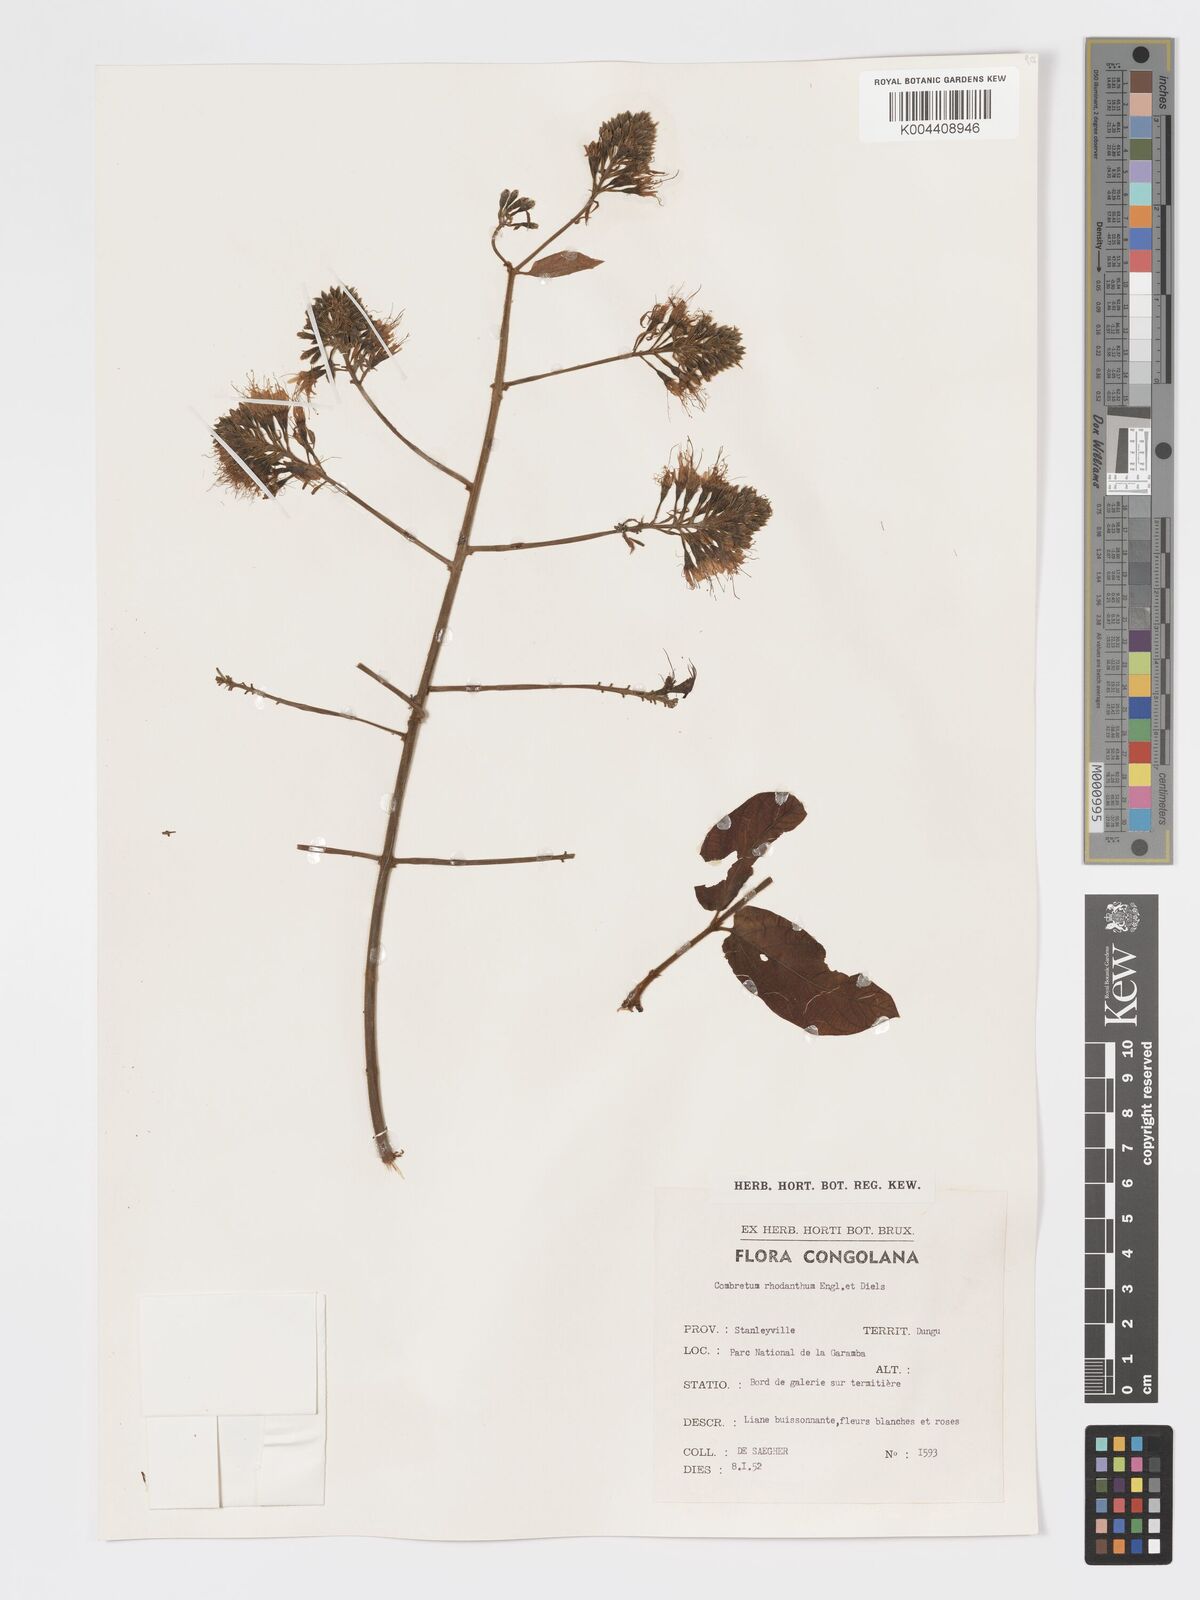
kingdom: Plantae
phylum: Tracheophyta
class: Magnoliopsida
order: Myrtales
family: Combretaceae
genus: Combretum
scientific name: Combretum comosum
